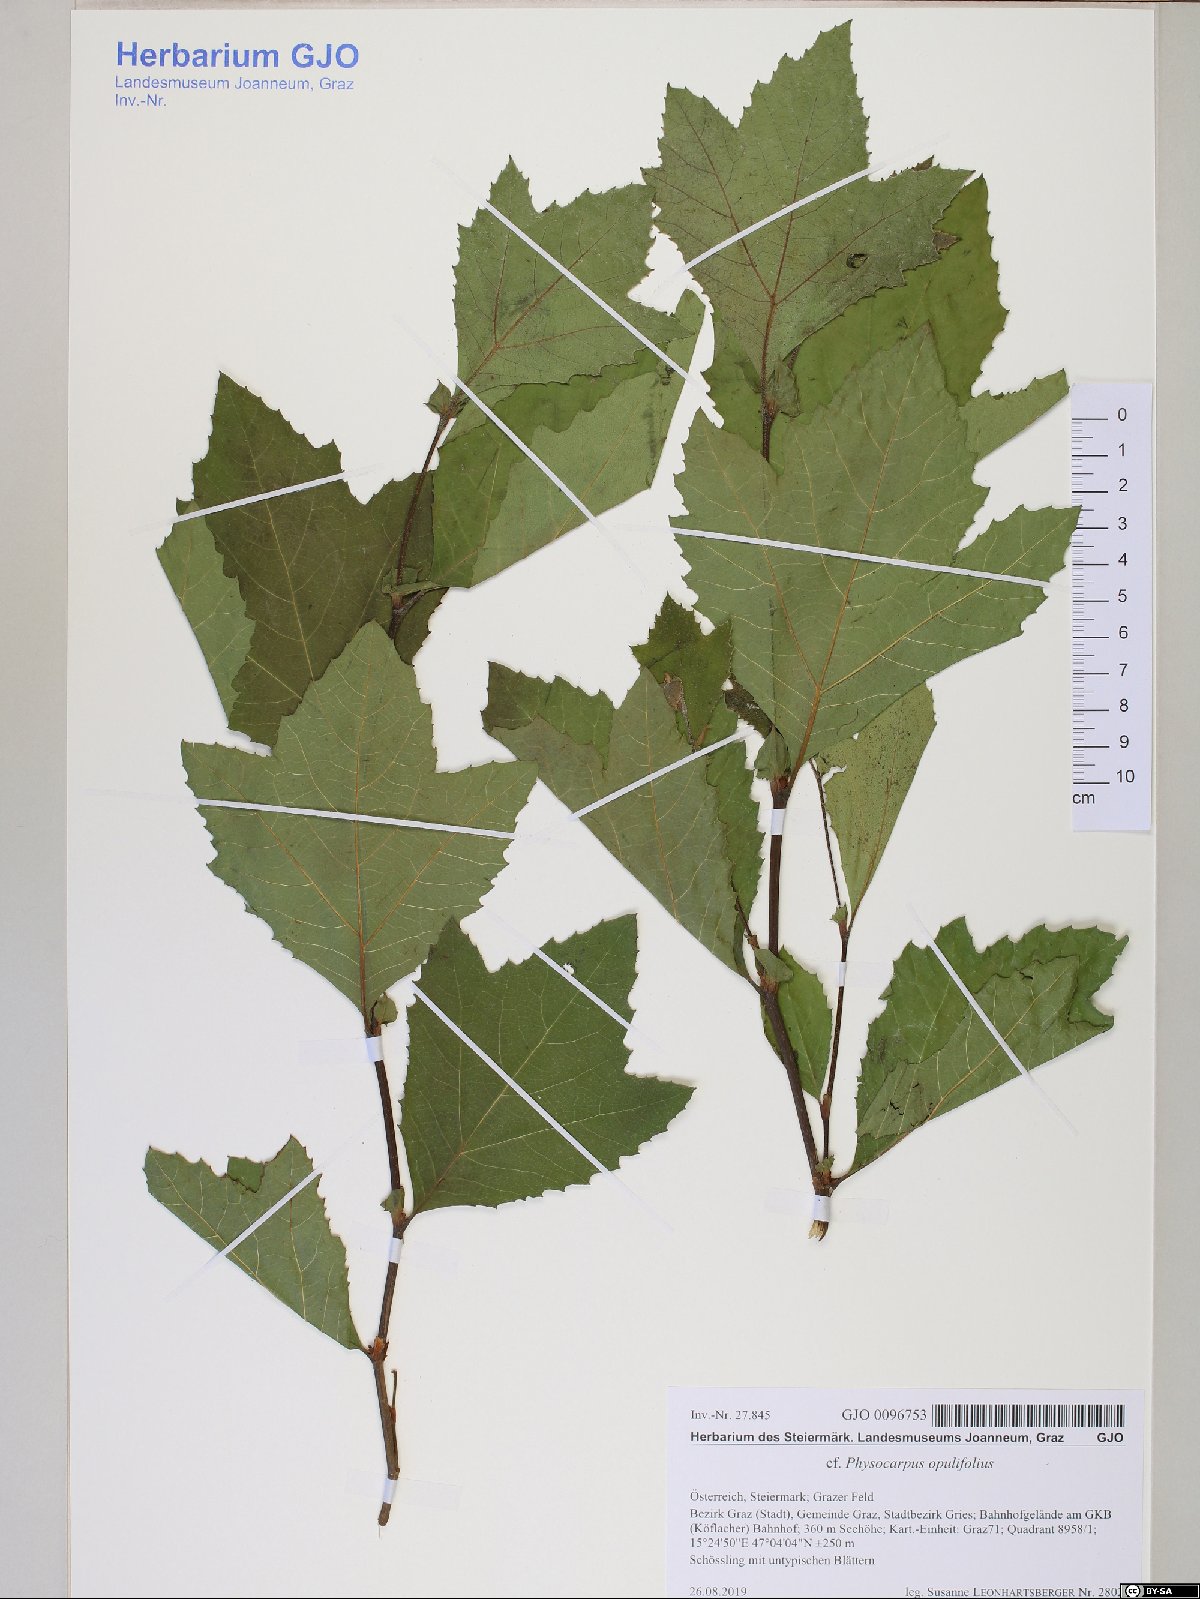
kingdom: Plantae
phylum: Tracheophyta
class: Magnoliopsida
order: Rosales
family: Rosaceae
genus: Physocarpus
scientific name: Physocarpus opulifolius
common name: Ninebark
